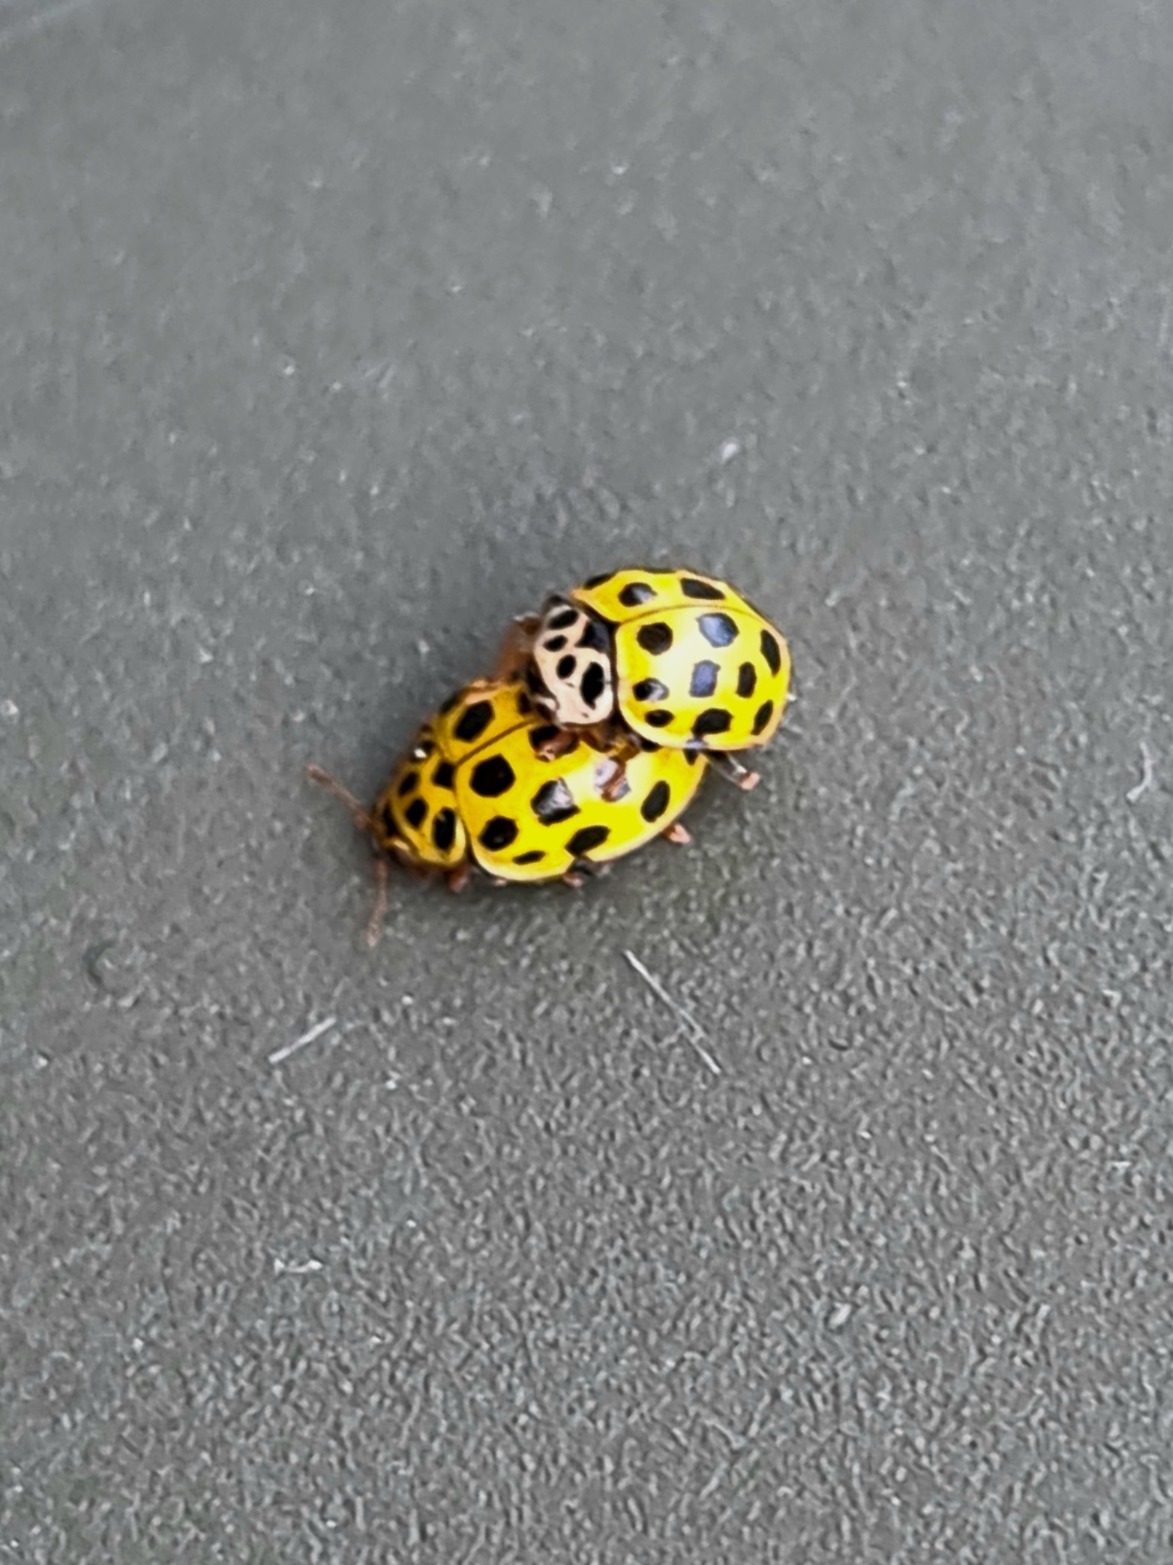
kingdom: Animalia
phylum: Arthropoda
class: Insecta
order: Coleoptera
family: Coccinellidae
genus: Psyllobora
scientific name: Psyllobora vigintiduopunctata
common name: Toogtyveplettet mariehøne
